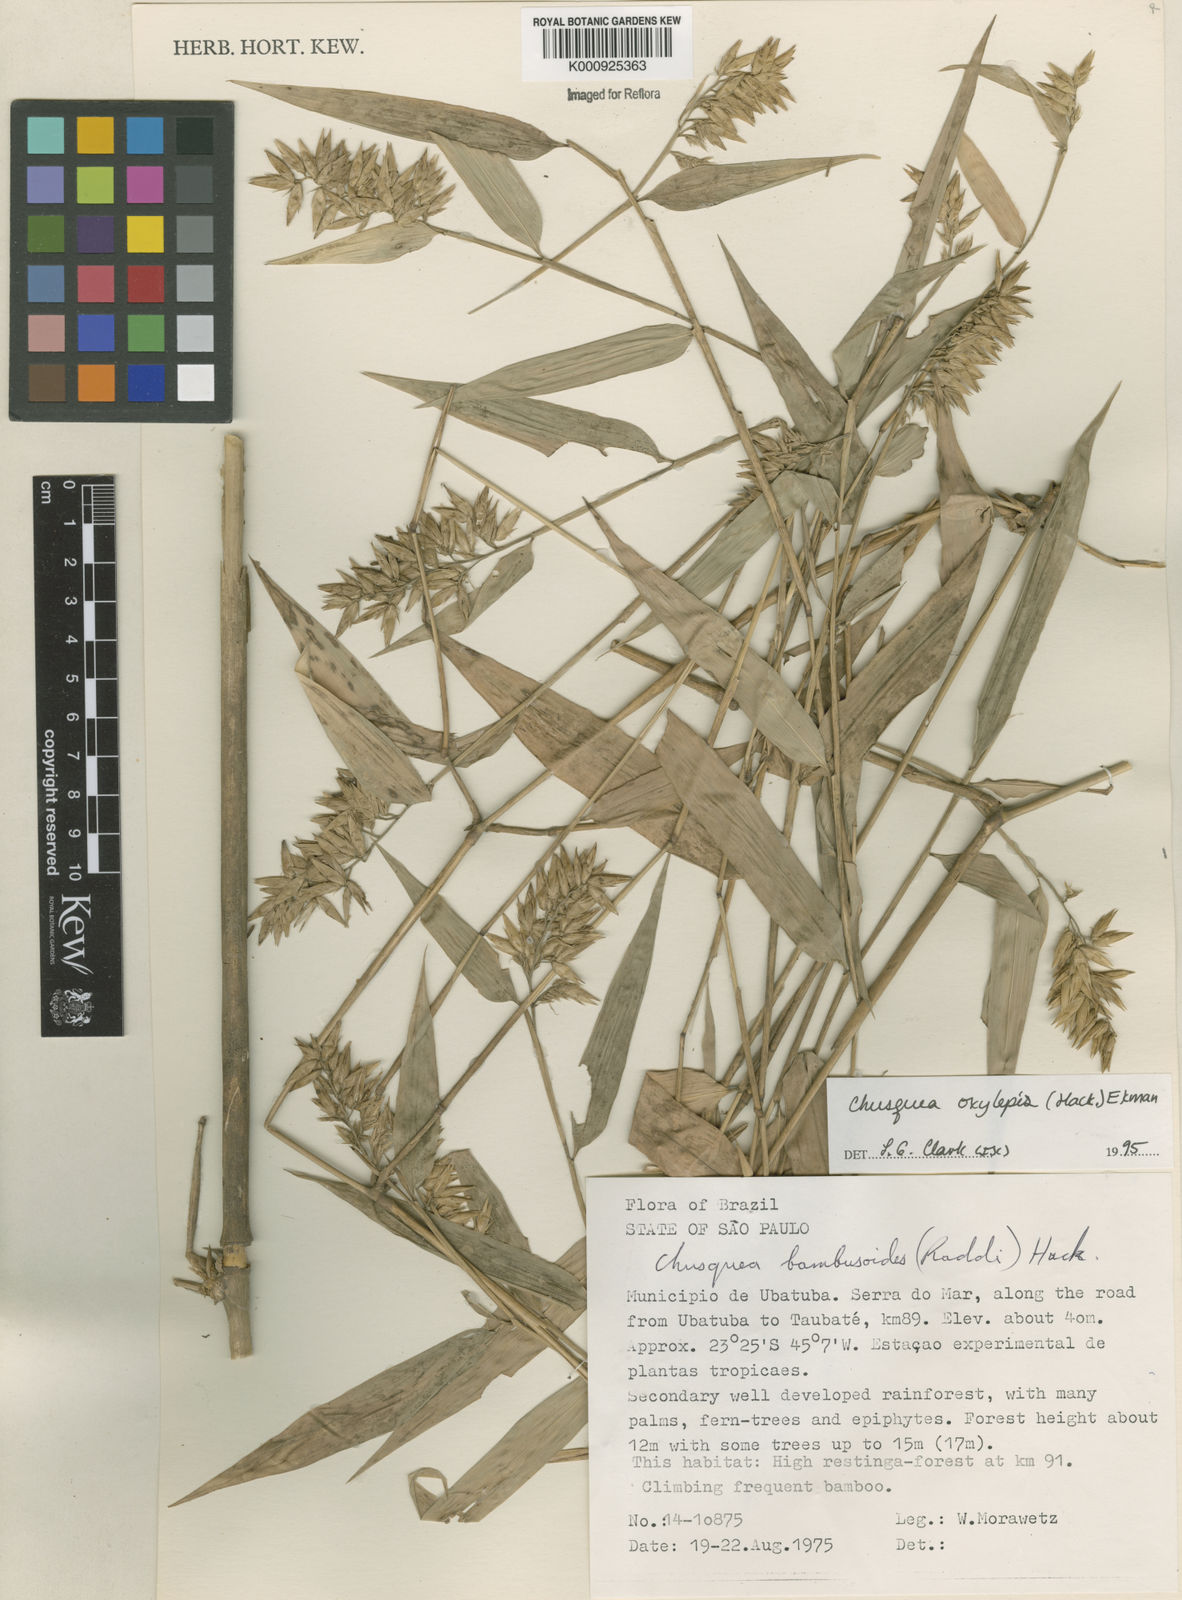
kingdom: Plantae
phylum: Tracheophyta
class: Liliopsida
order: Poales
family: Poaceae
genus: Chusquea
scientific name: Chusquea oxylepis
